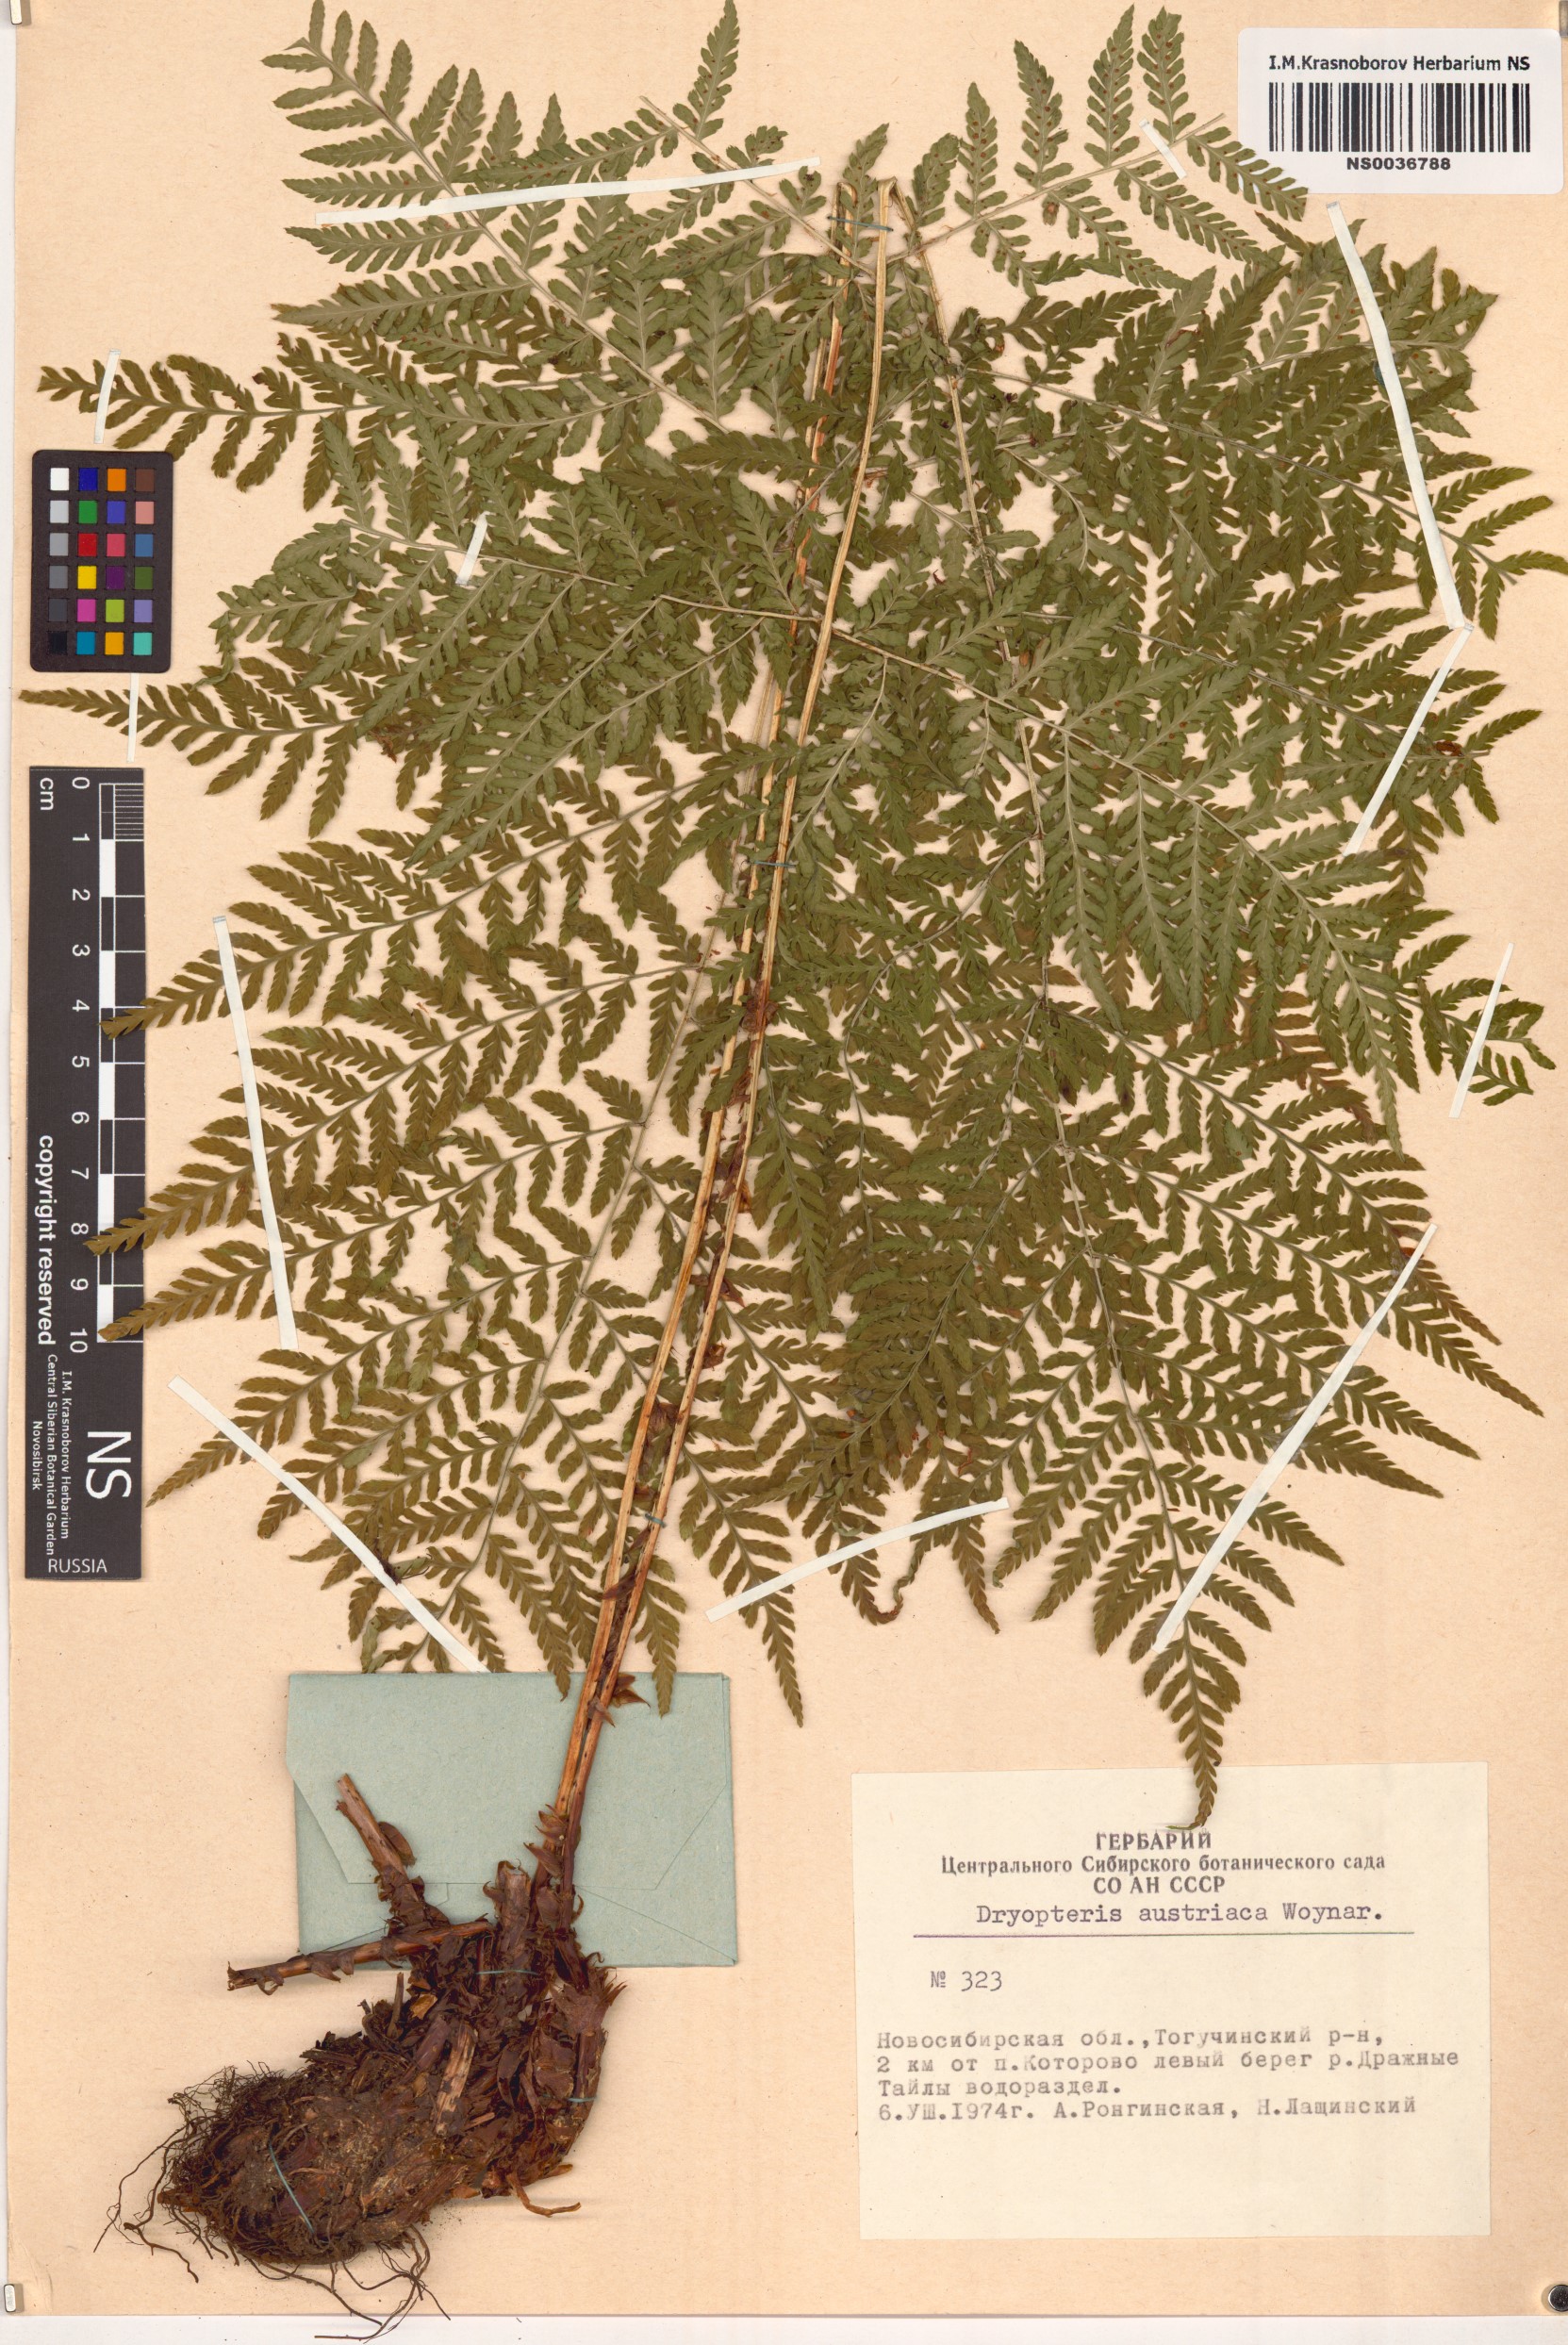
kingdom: Plantae
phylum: Tracheophyta
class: Polypodiopsida
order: Polypodiales
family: Dryopteridaceae
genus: Dryopteris
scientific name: Dryopteris dilatata
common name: Broad buckler-fern
